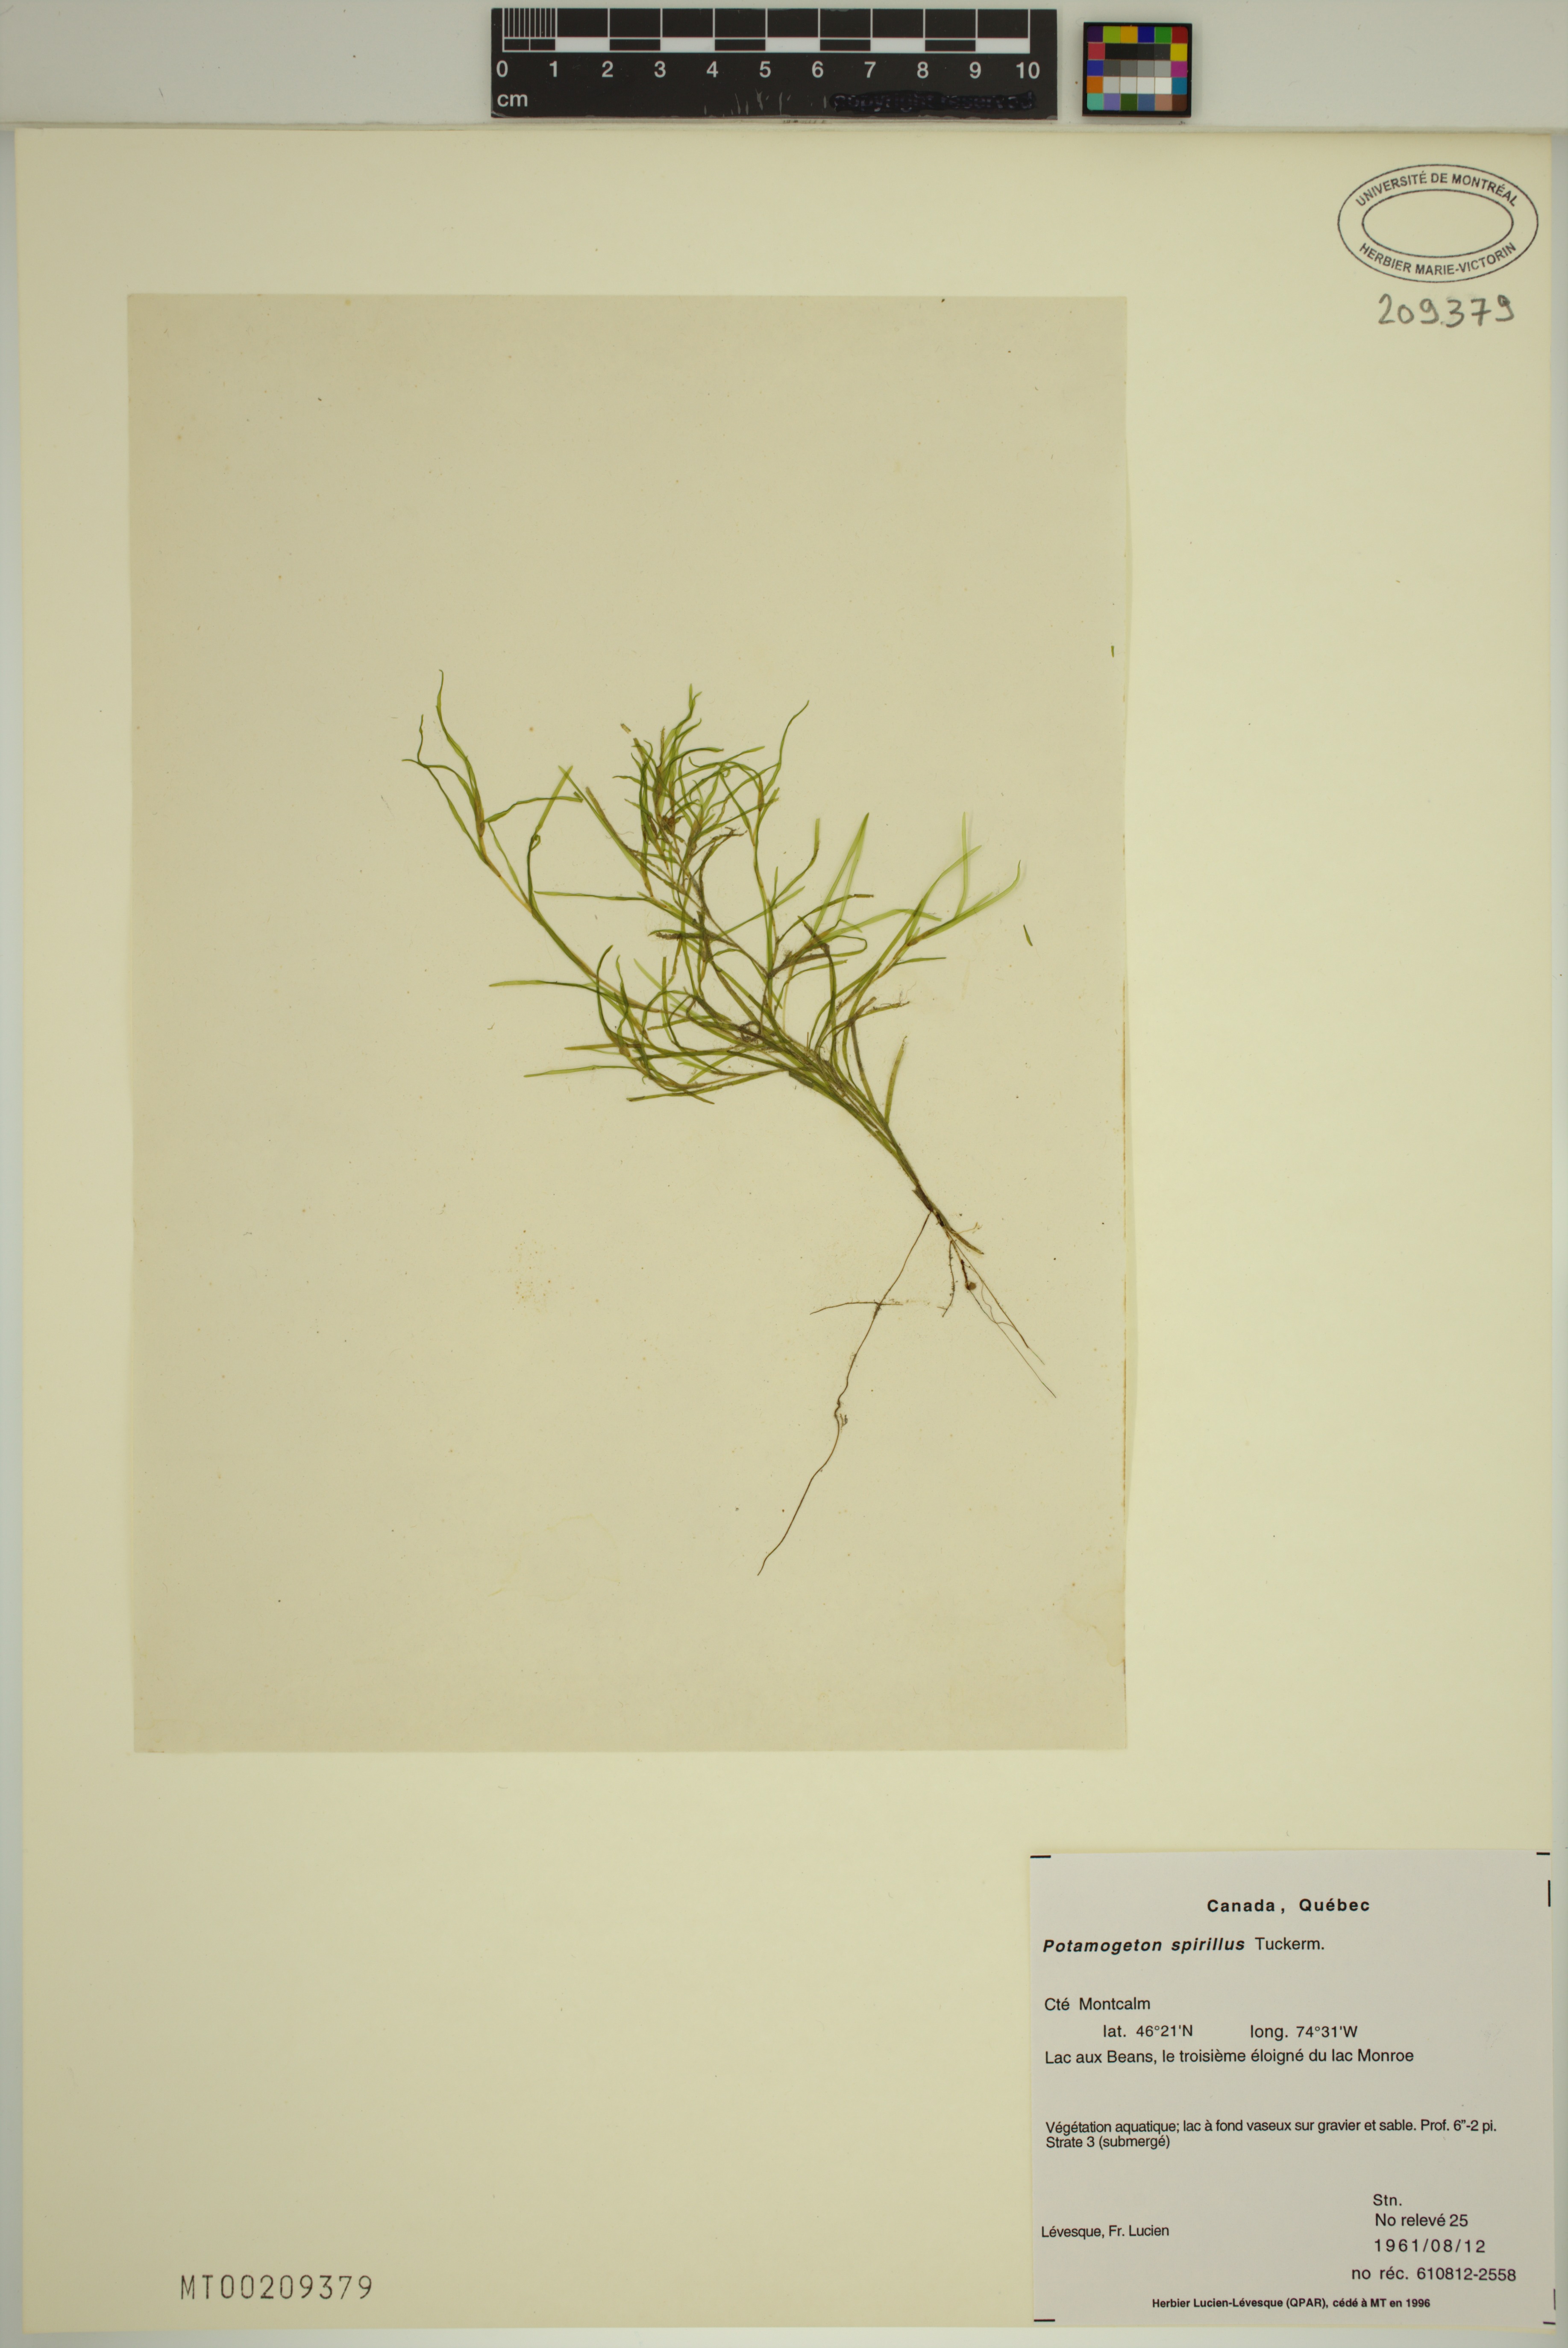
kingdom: Plantae
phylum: Tracheophyta
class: Liliopsida
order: Alismatales
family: Potamogetonaceae
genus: Potamogeton
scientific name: Potamogeton spirillus
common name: Northern snail-seed pondweed
